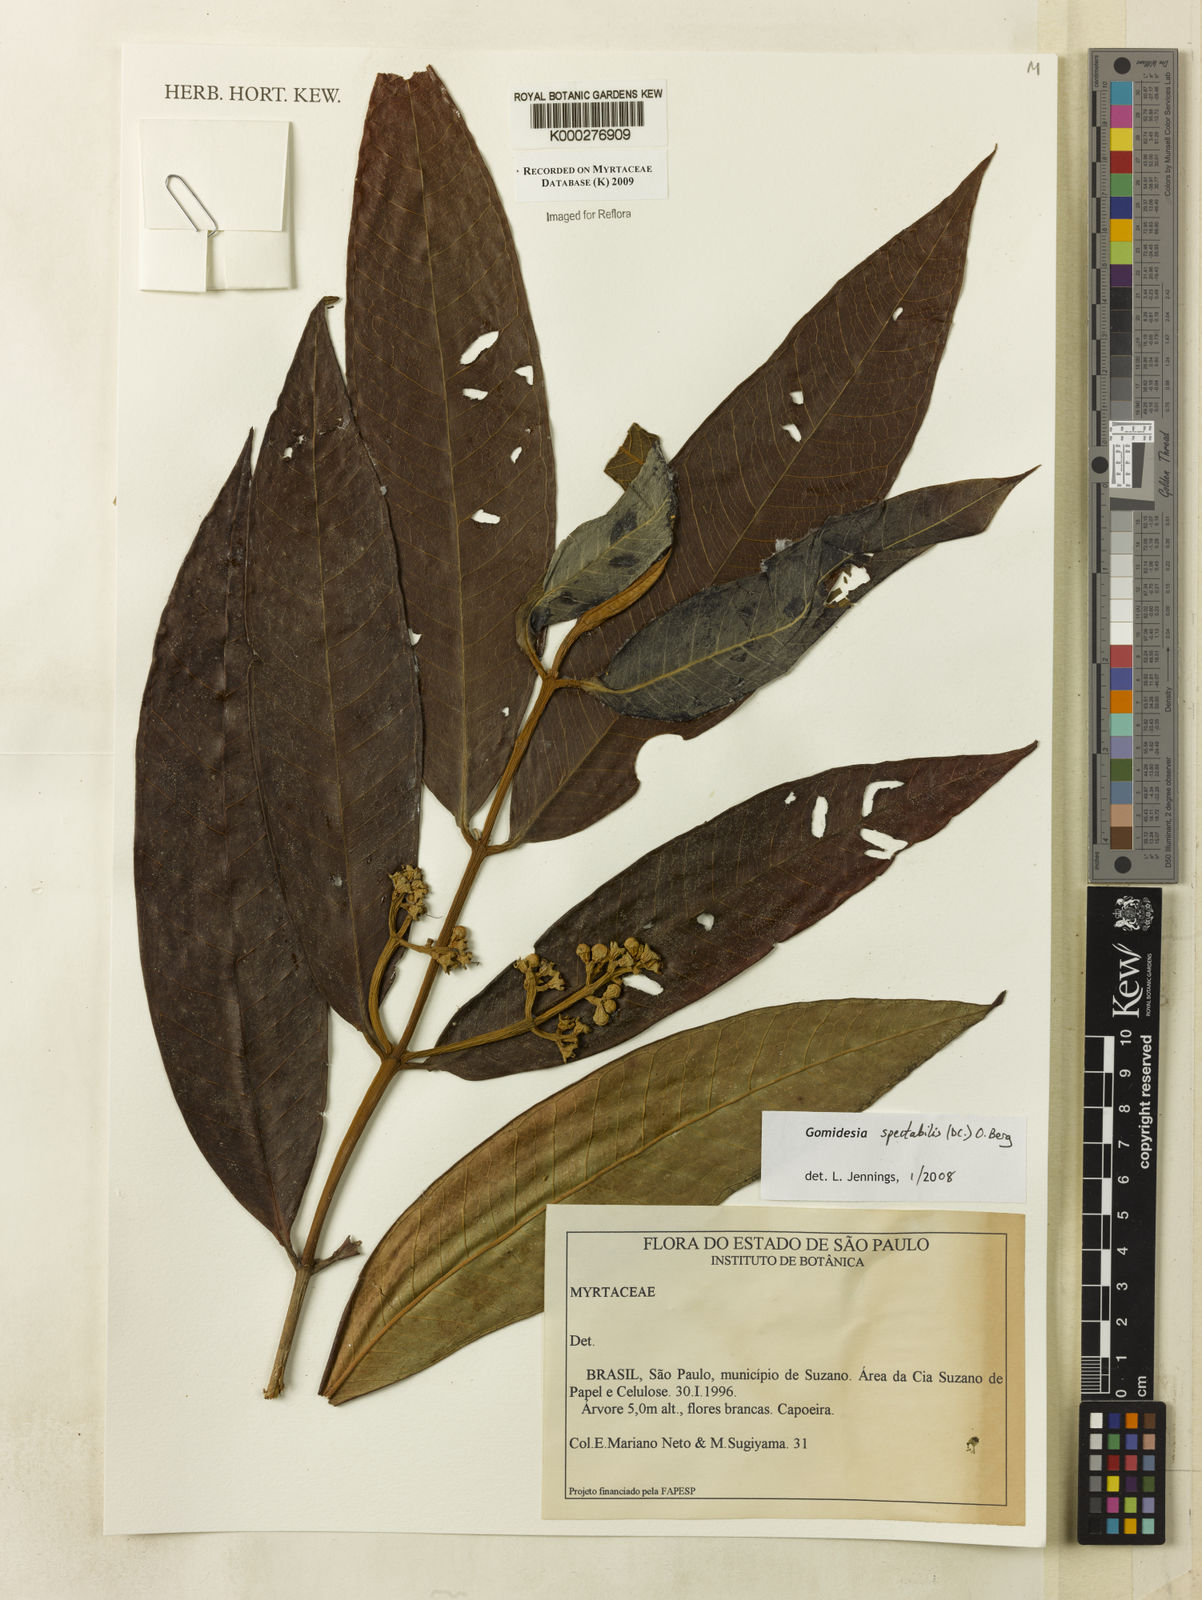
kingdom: Plantae
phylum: Tracheophyta
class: Magnoliopsida
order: Myrtales
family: Myrtaceae
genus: Myrcia
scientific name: Myrcia spectabilis
